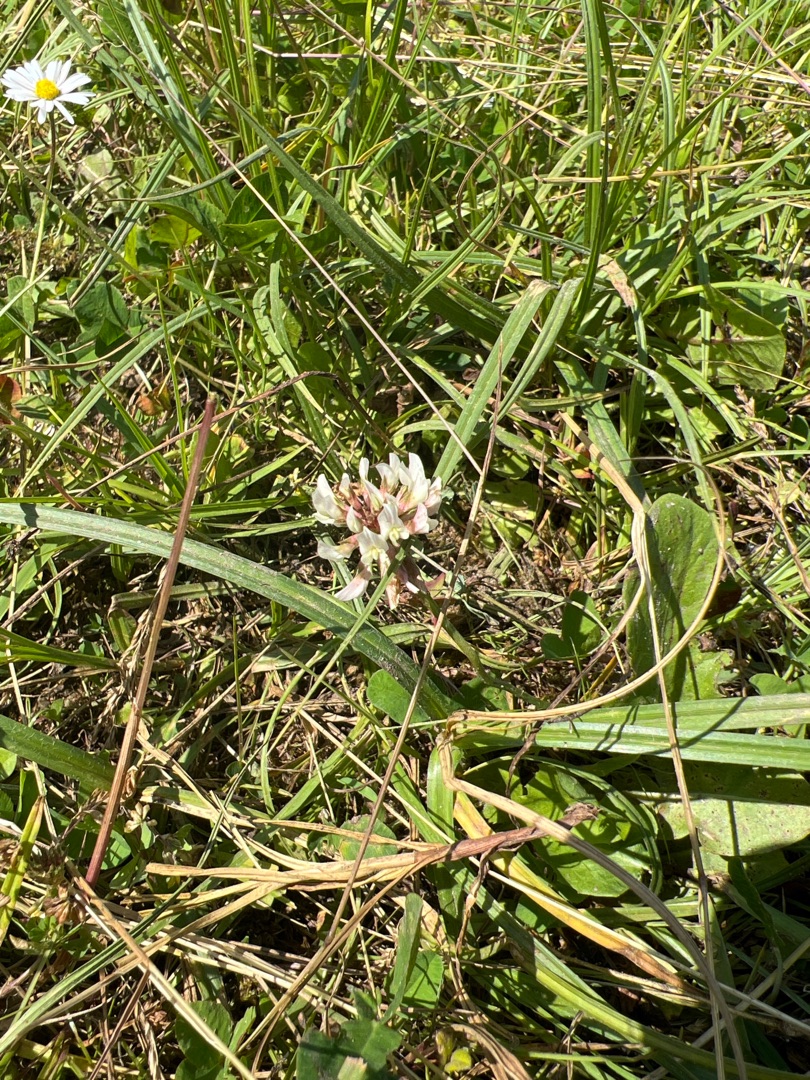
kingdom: Plantae
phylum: Tracheophyta
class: Magnoliopsida
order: Fabales
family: Fabaceae
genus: Trifolium
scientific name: Trifolium repens
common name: Hvid-kløver
